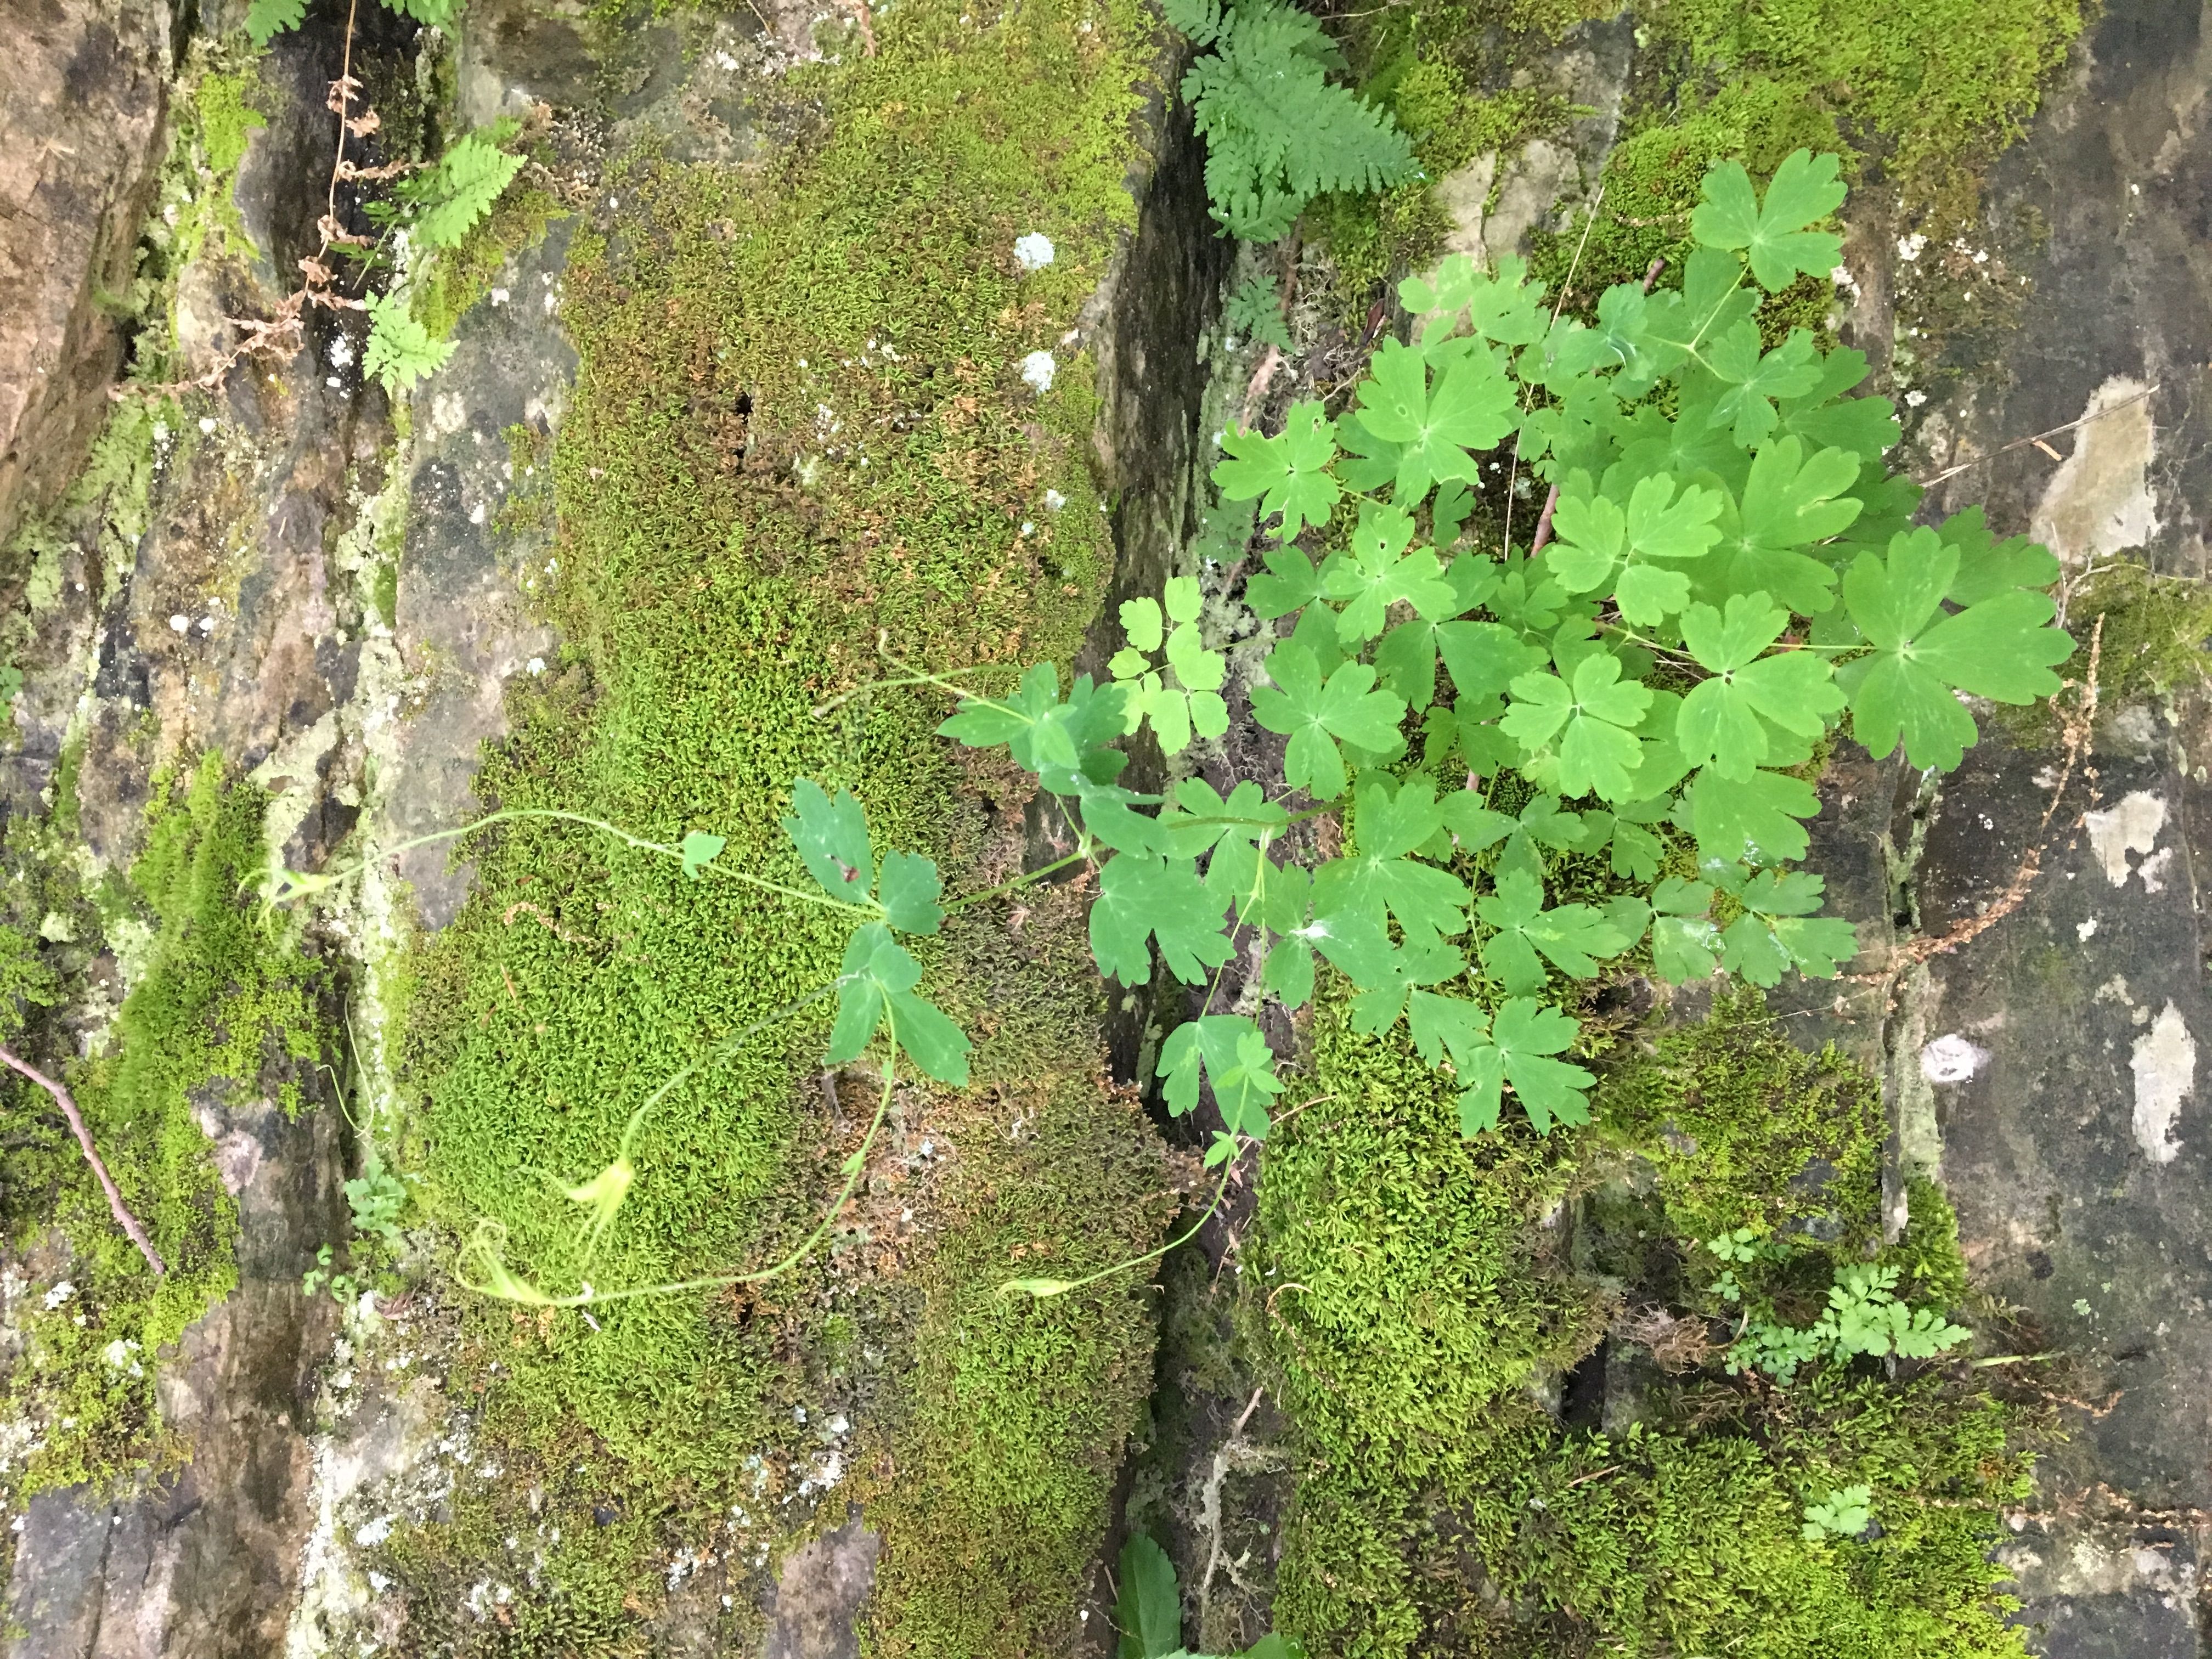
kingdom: Plantae
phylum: Tracheophyta
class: Magnoliopsida
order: Ranunculales
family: Ranunculaceae
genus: Aquilegia
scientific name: Aquilegia canadensis
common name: wild columbine
